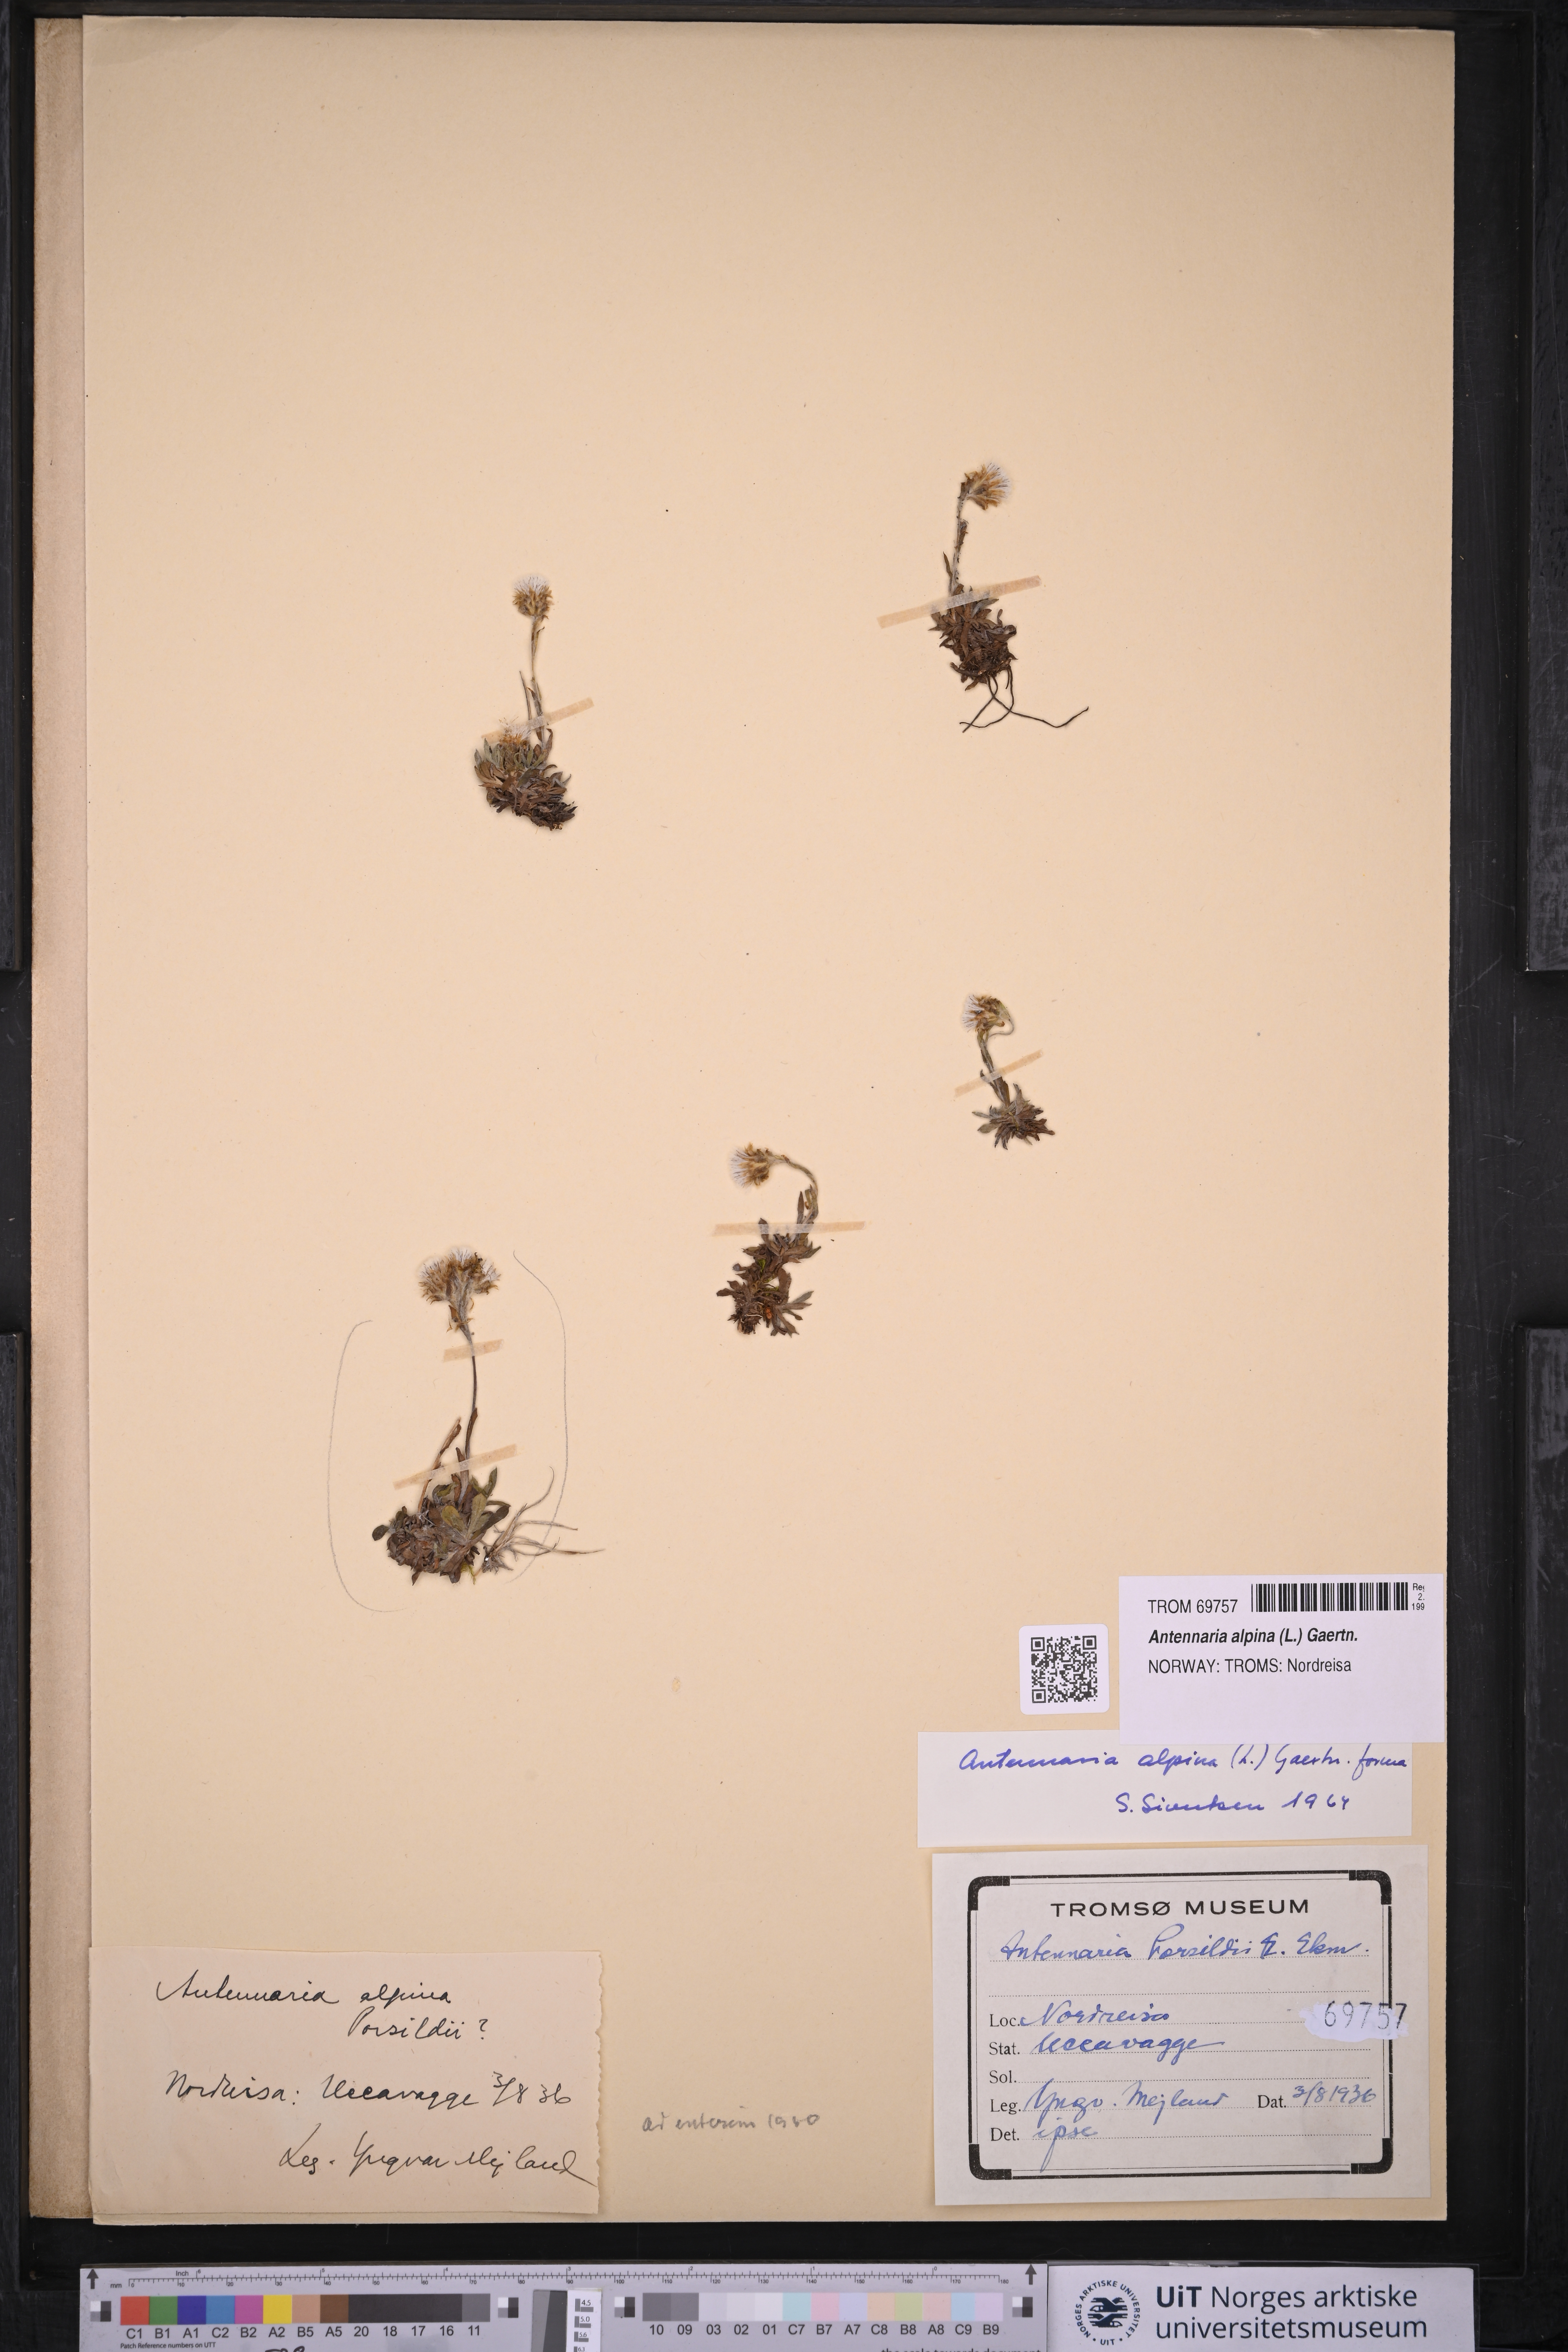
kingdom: Plantae
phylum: Tracheophyta
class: Magnoliopsida
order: Asterales
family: Asteraceae
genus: Antennaria
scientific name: Antennaria alpina
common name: Alpine pussytoes
